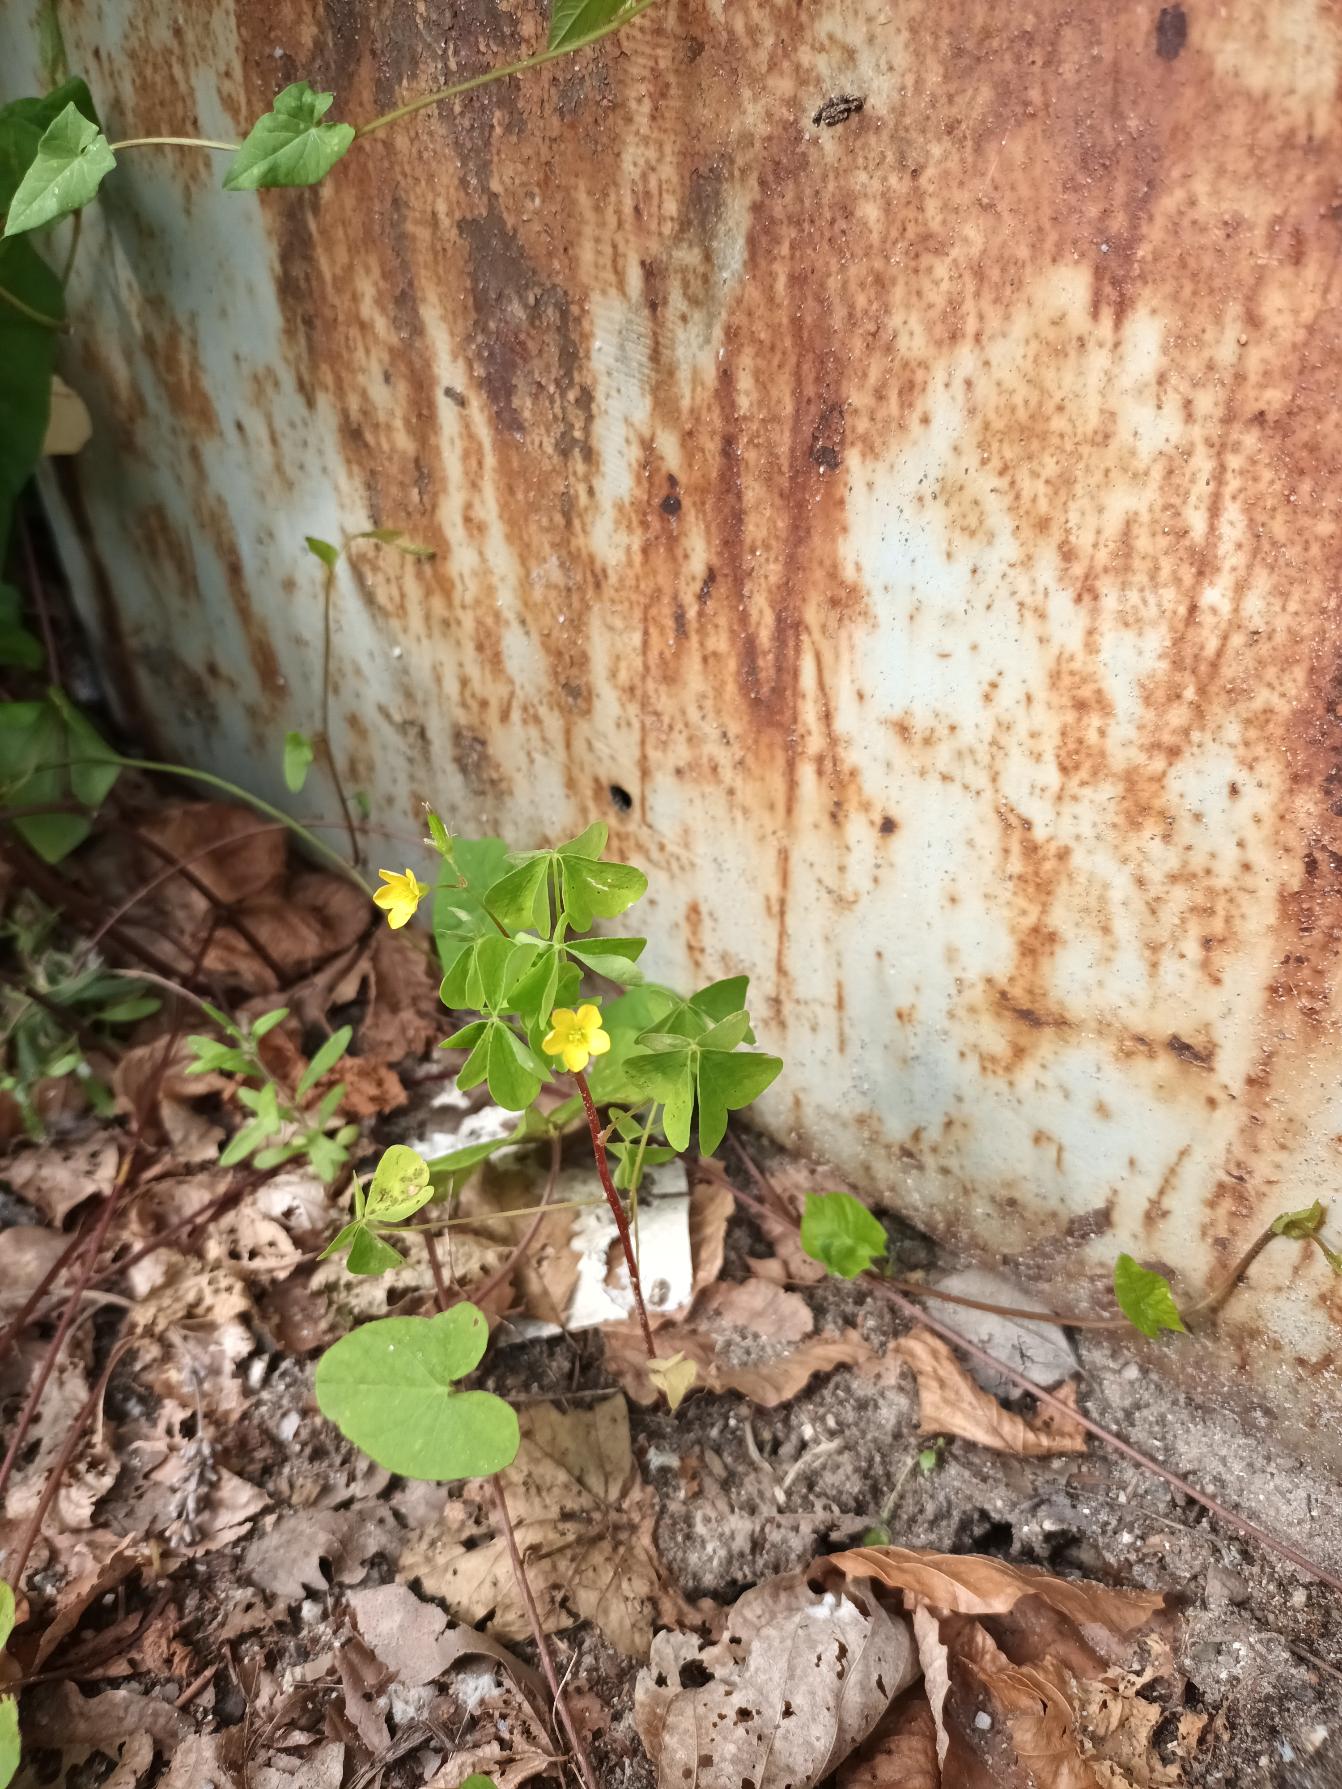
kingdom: Plantae
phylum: Tracheophyta
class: Magnoliopsida
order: Oxalidales
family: Oxalidaceae
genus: Oxalis
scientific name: Oxalis stricta
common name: Rank surkløver
